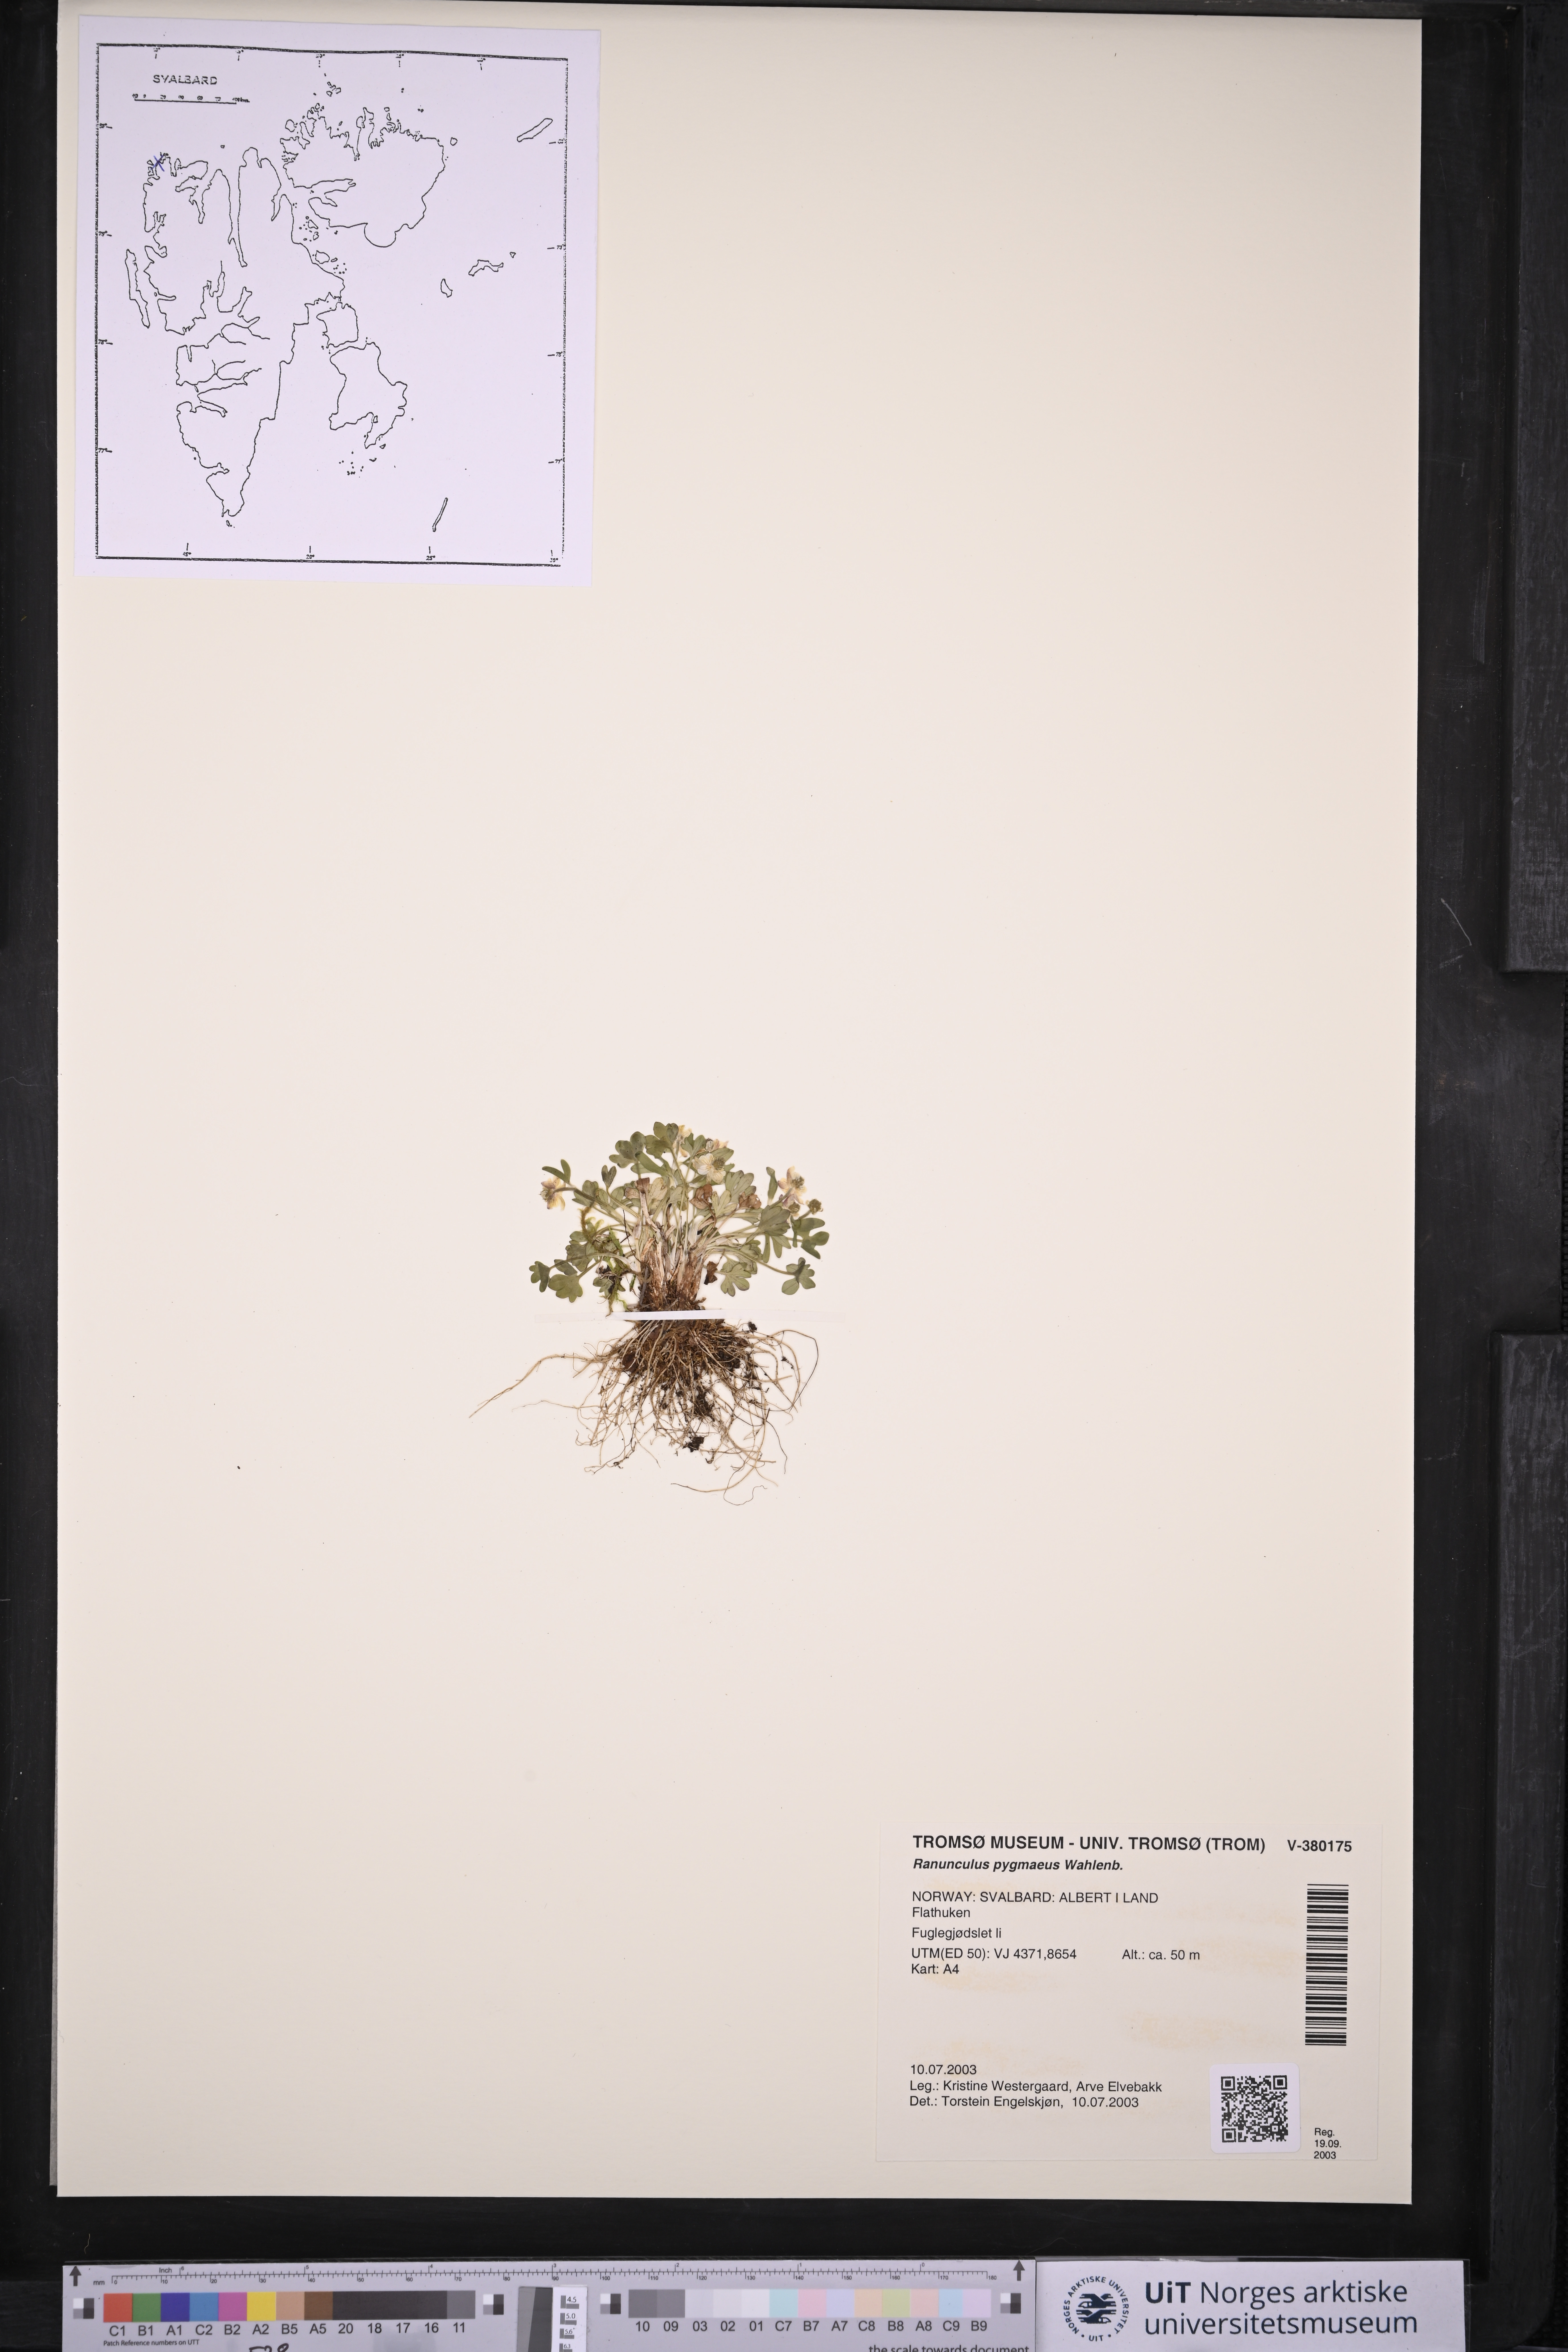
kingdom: Plantae
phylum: Tracheophyta
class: Magnoliopsida
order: Ranunculales
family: Ranunculaceae
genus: Ranunculus
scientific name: Ranunculus pygmaeus
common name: Dwarf buttercup
